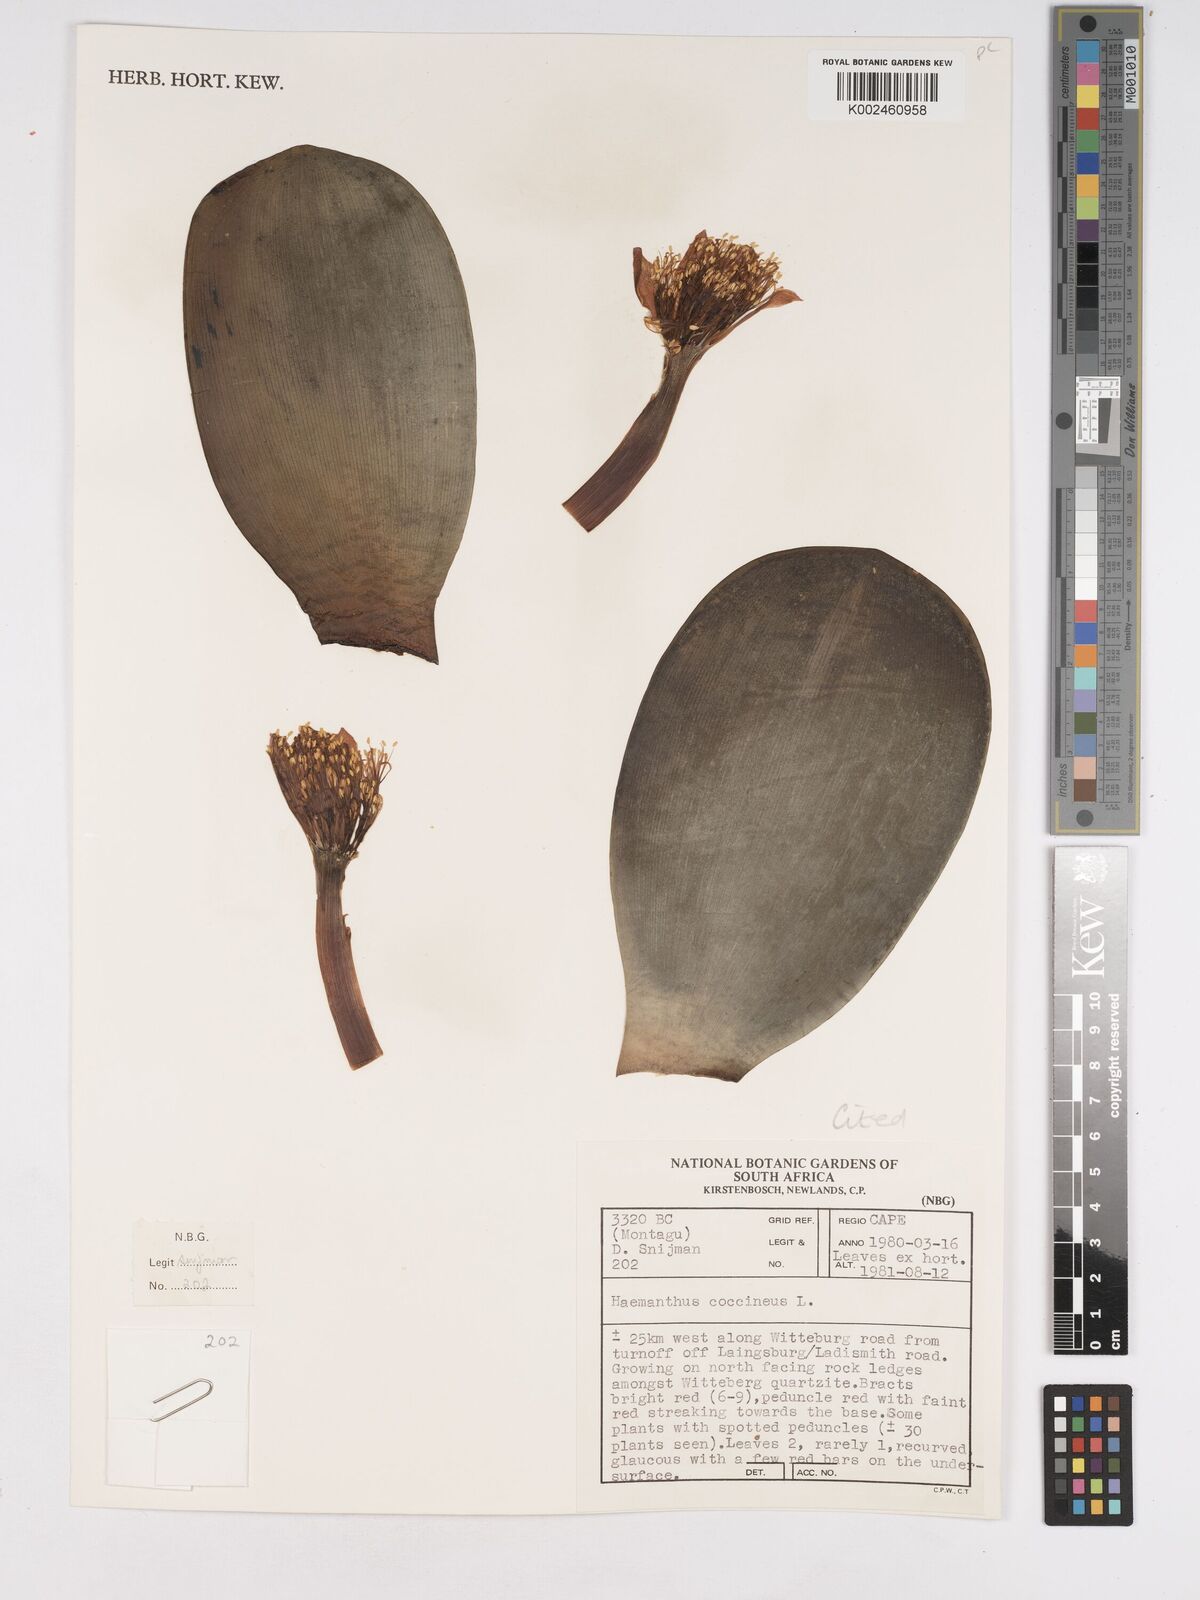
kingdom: Plantae
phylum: Tracheophyta
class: Liliopsida
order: Asparagales
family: Amaryllidaceae
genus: Haemanthus
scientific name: Haemanthus coccineus
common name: Cape-tulip
